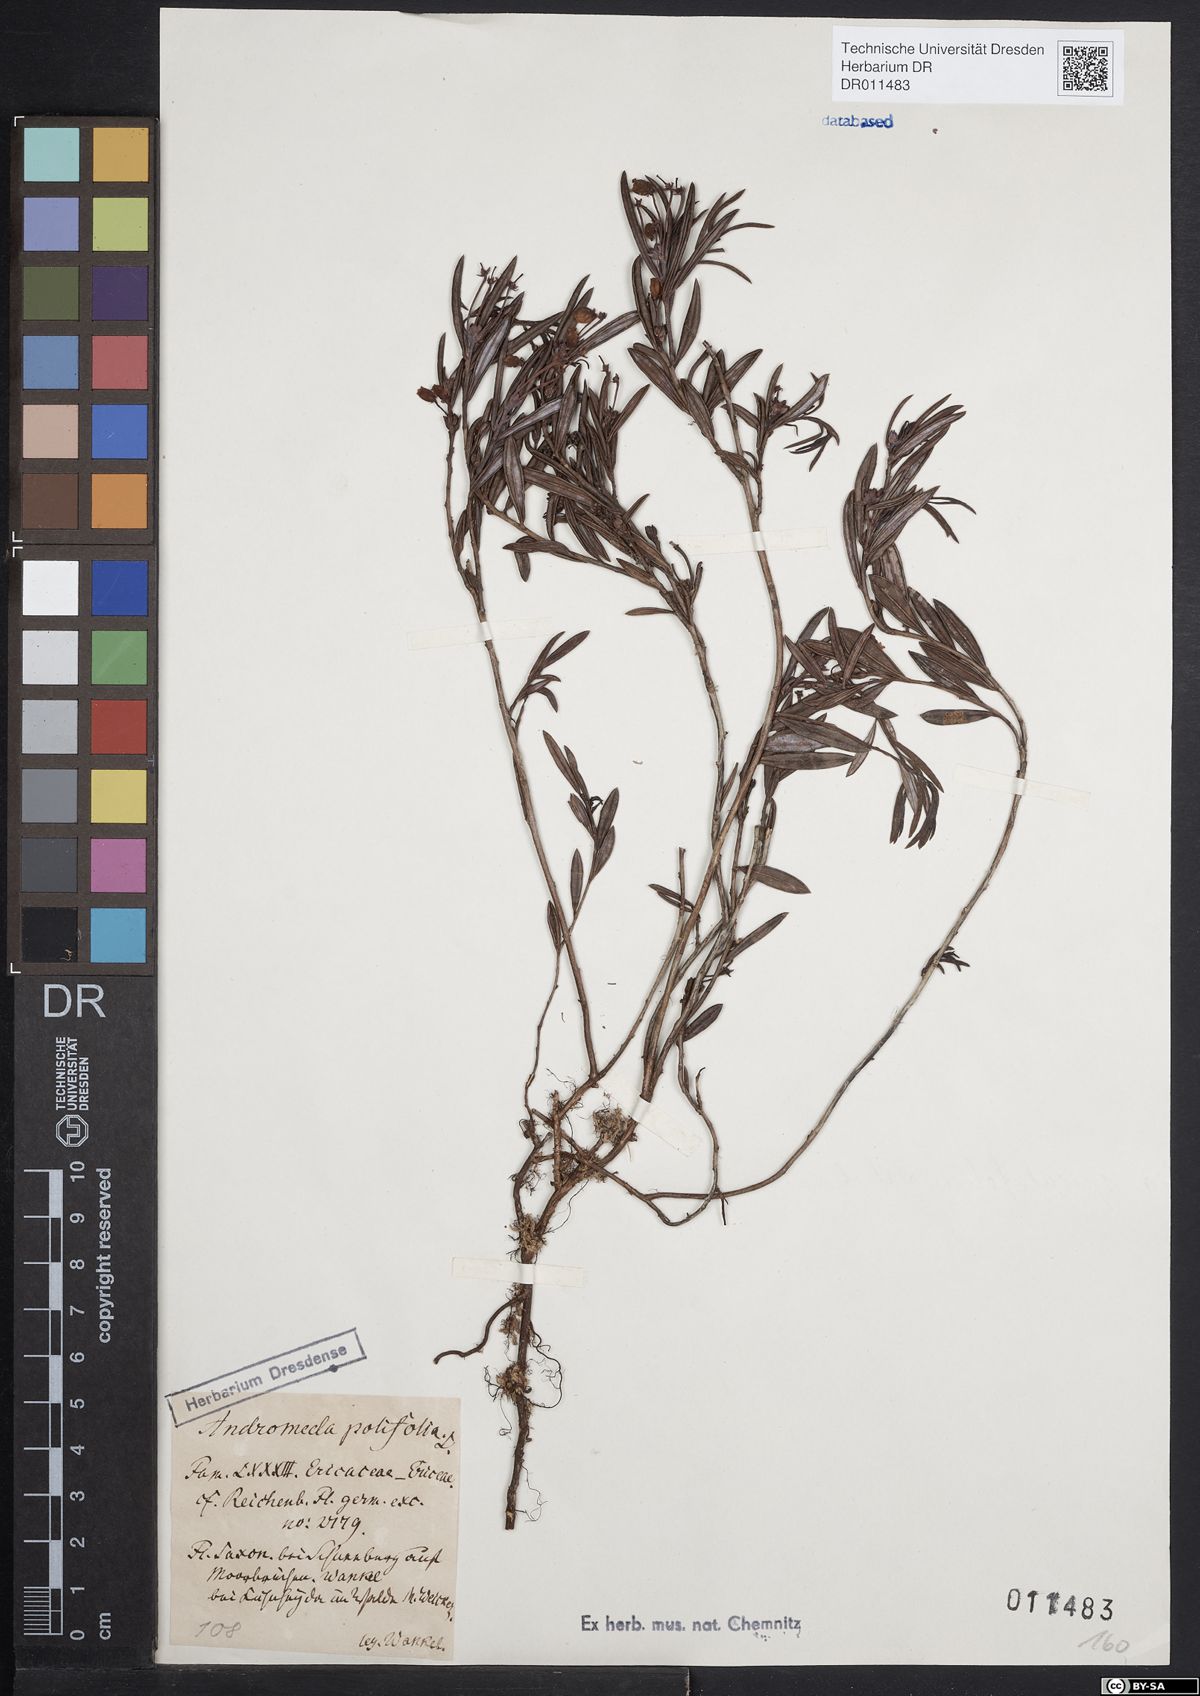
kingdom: Plantae
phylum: Tracheophyta
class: Magnoliopsida
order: Ericales
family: Ericaceae
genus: Andromeda
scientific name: Andromeda polifolia
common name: Bog-rosemary
